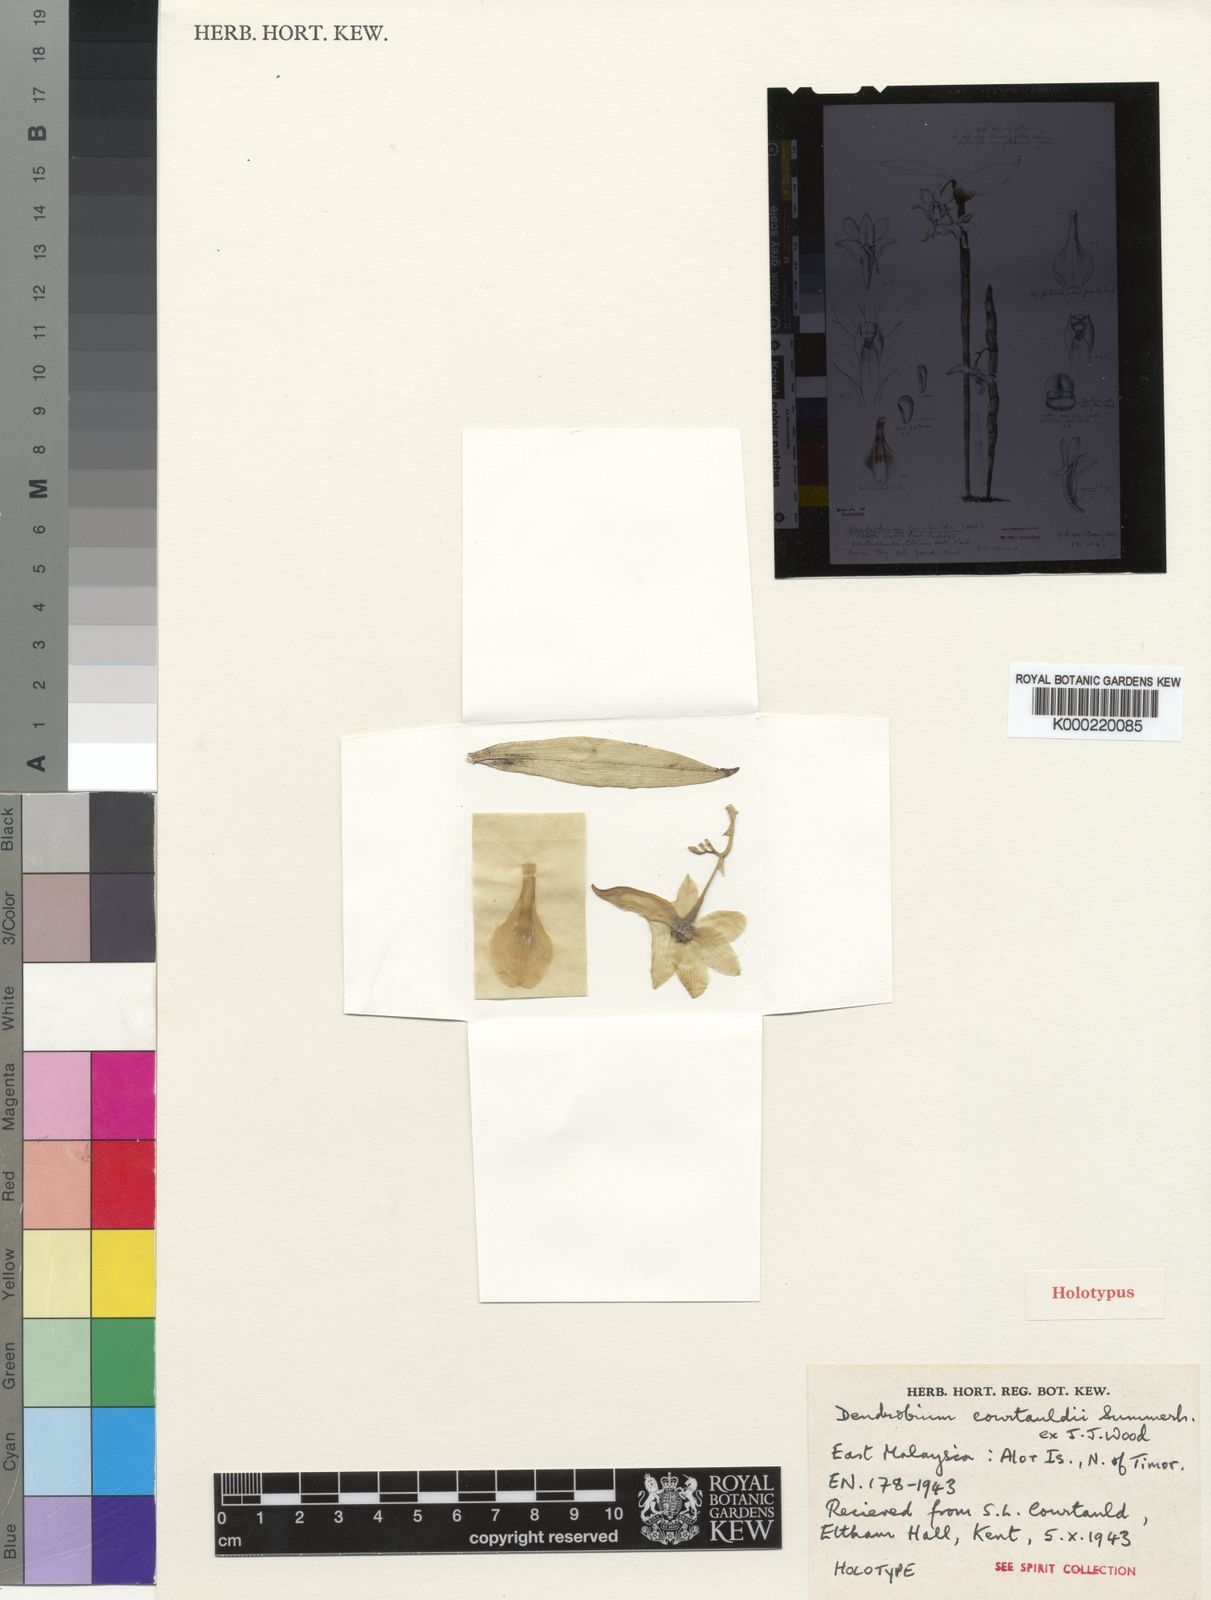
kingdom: Plantae
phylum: Tracheophyta
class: Liliopsida
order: Asparagales
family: Orchidaceae
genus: Dendrobium
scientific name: Dendrobium corrugatilobum
